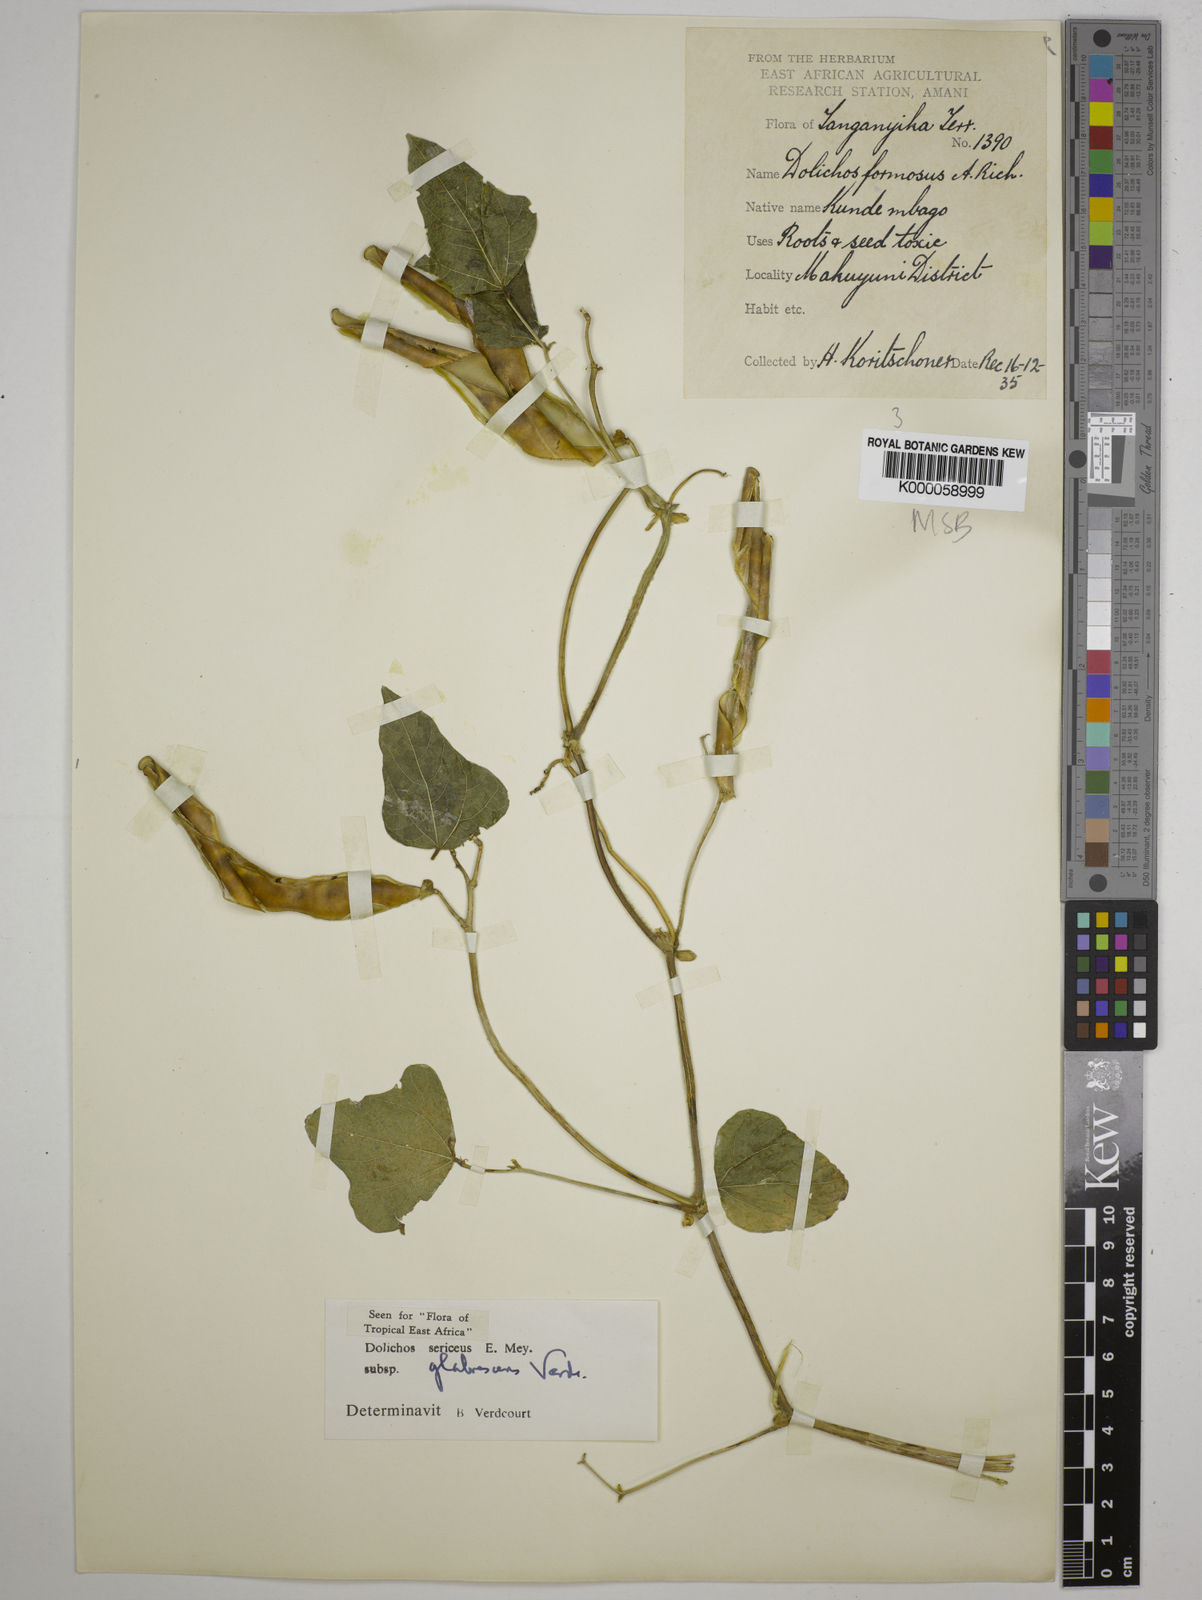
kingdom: Plantae
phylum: Tracheophyta
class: Magnoliopsida
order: Fabales
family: Fabaceae
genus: Dolichos
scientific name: Dolichos sericeus
